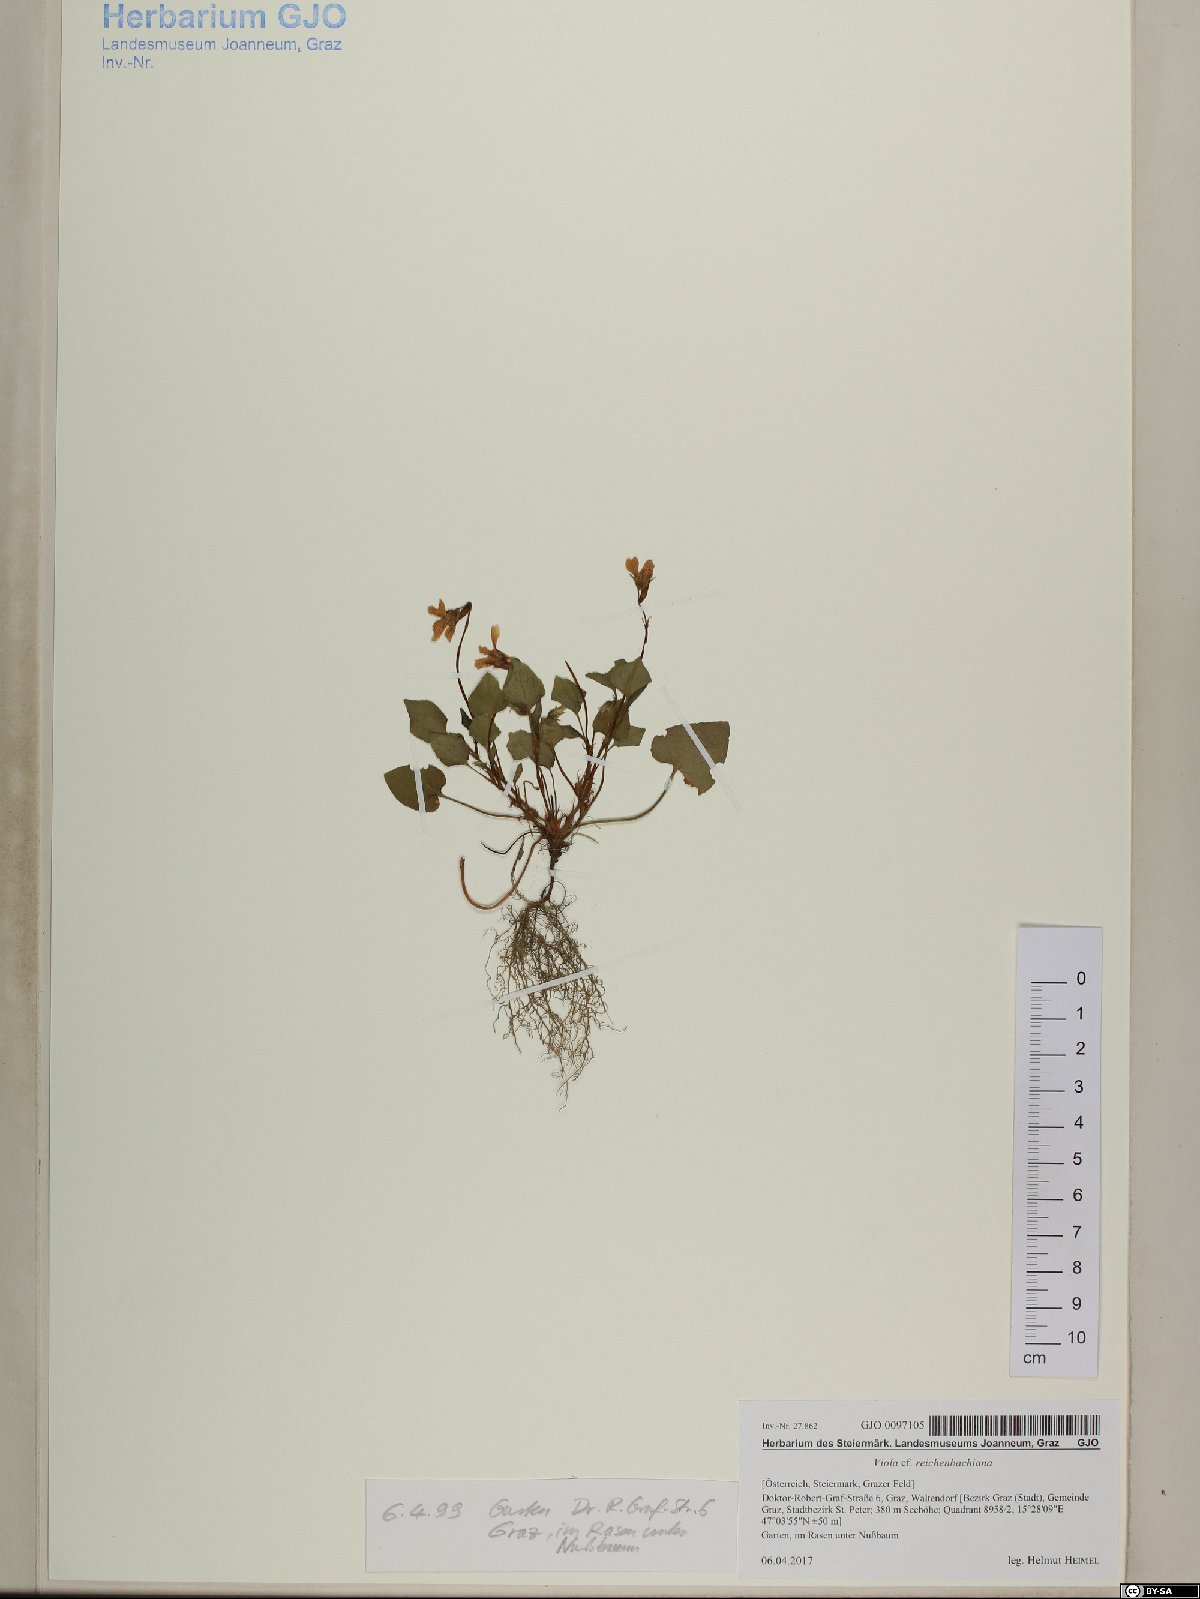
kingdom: Plantae
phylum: Tracheophyta
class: Magnoliopsida
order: Malpighiales
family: Violaceae
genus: Viola
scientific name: Viola reichenbachiana
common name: Early dog-violet
